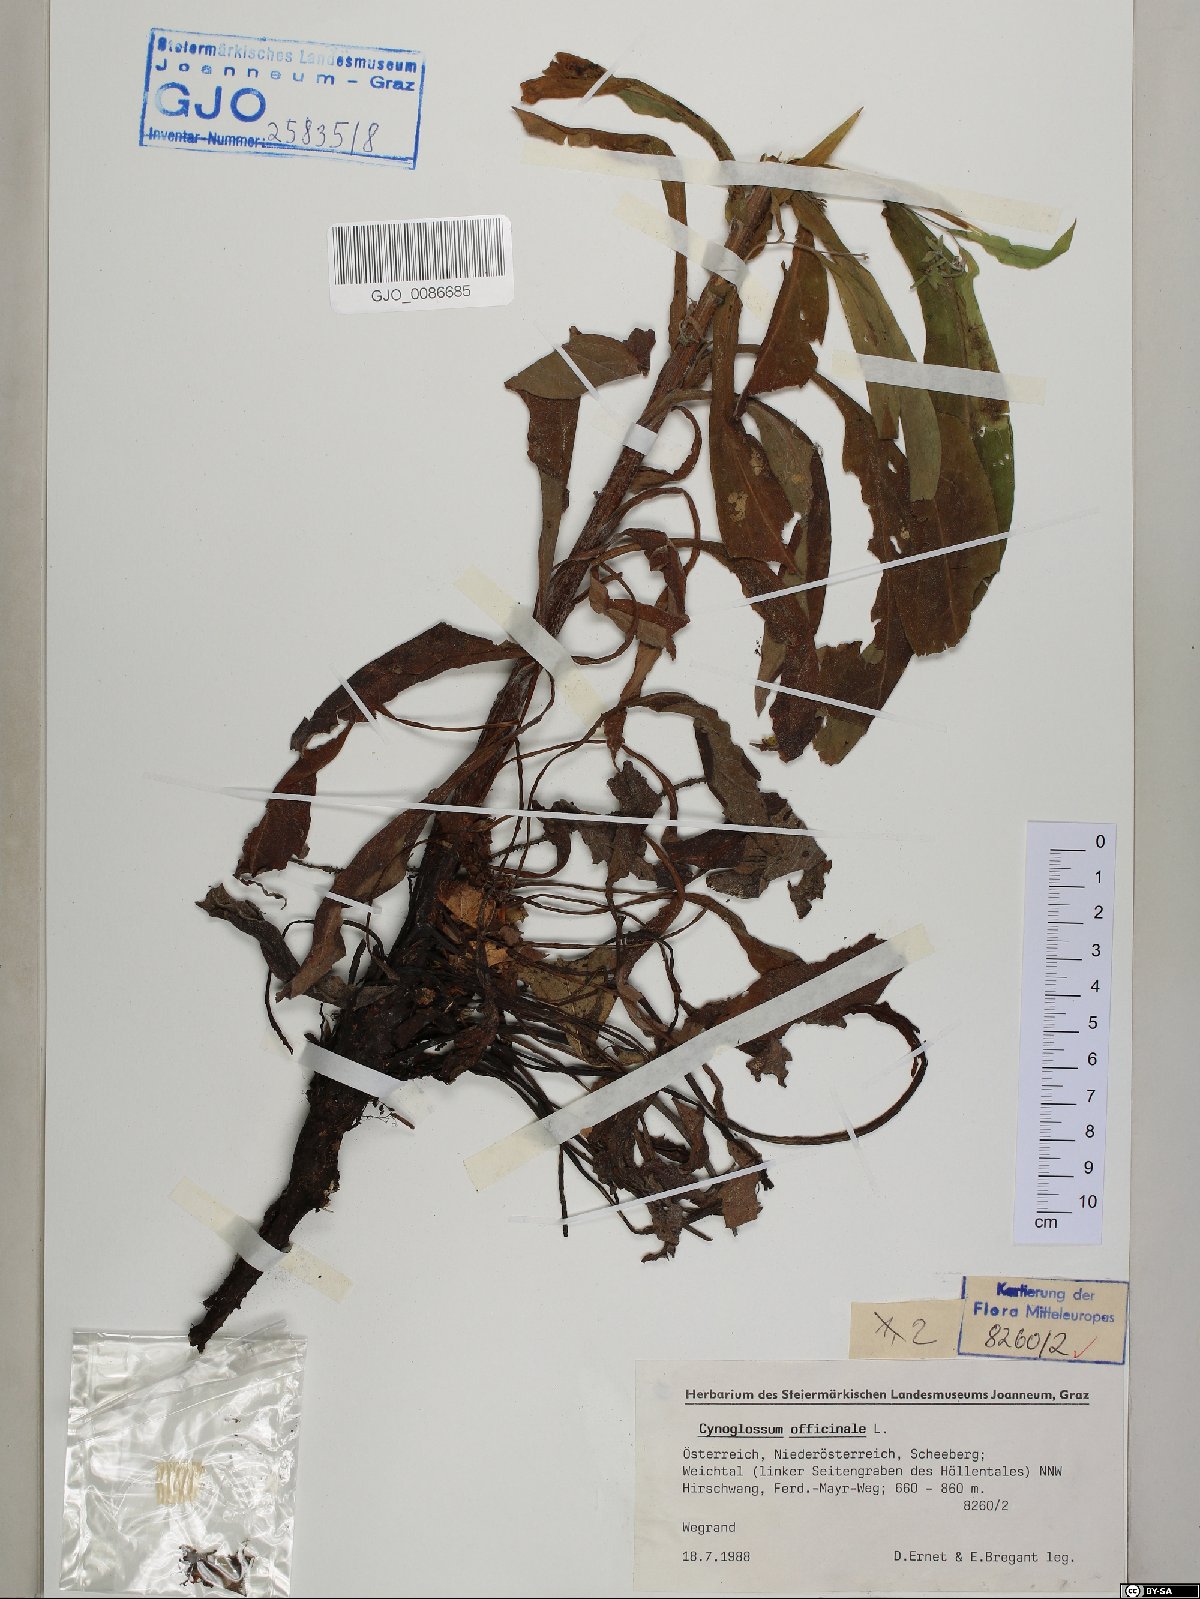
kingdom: Plantae
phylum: Tracheophyta
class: Magnoliopsida
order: Boraginales
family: Boraginaceae
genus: Cynoglossum
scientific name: Cynoglossum officinale
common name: Hound's-tongue
